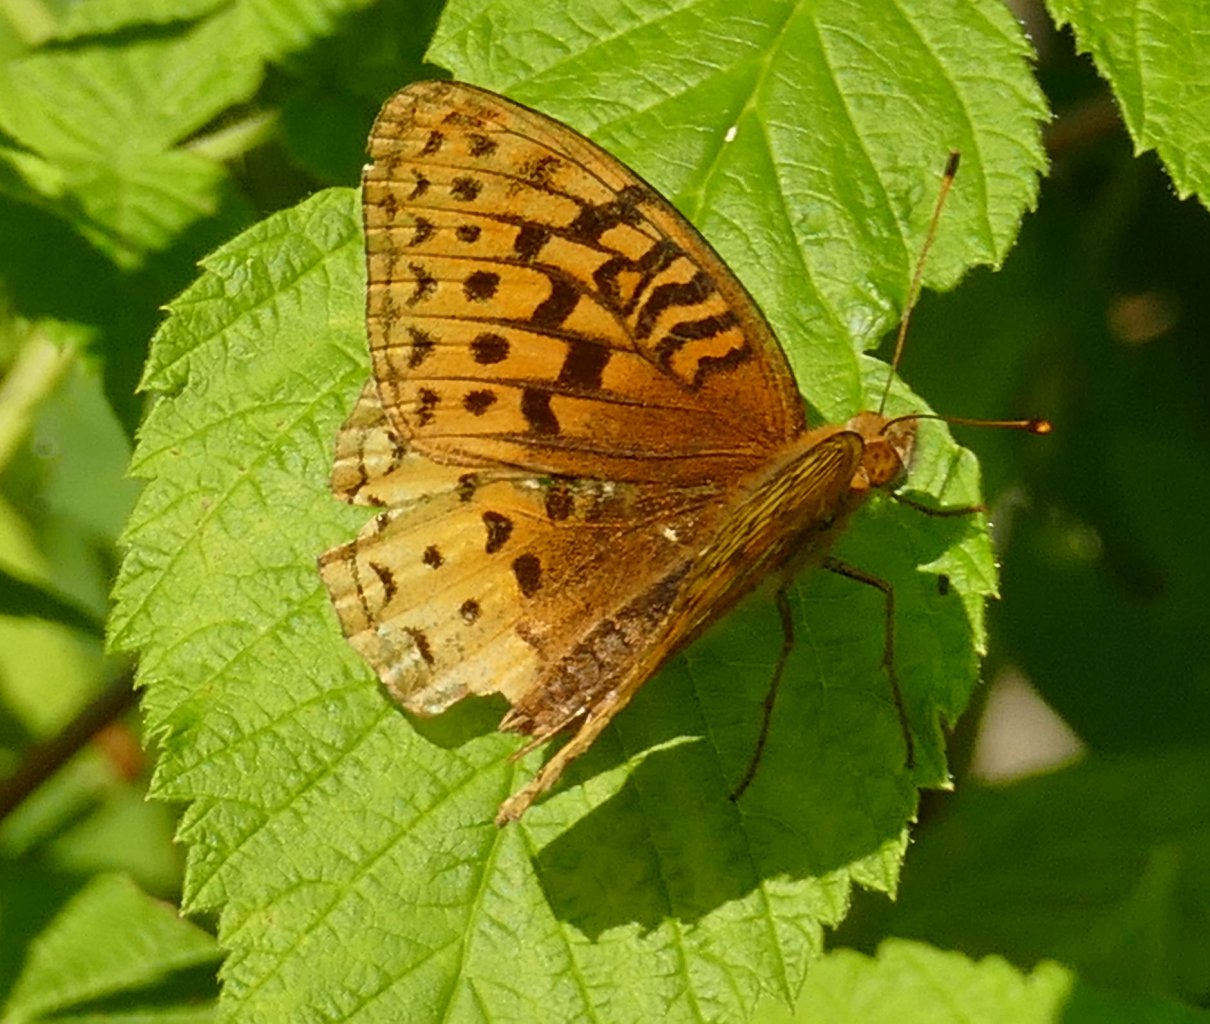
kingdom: Animalia
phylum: Arthropoda
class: Insecta
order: Lepidoptera
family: Nymphalidae
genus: Speyeria
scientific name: Speyeria cybele
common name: Great Spangled Fritillary
